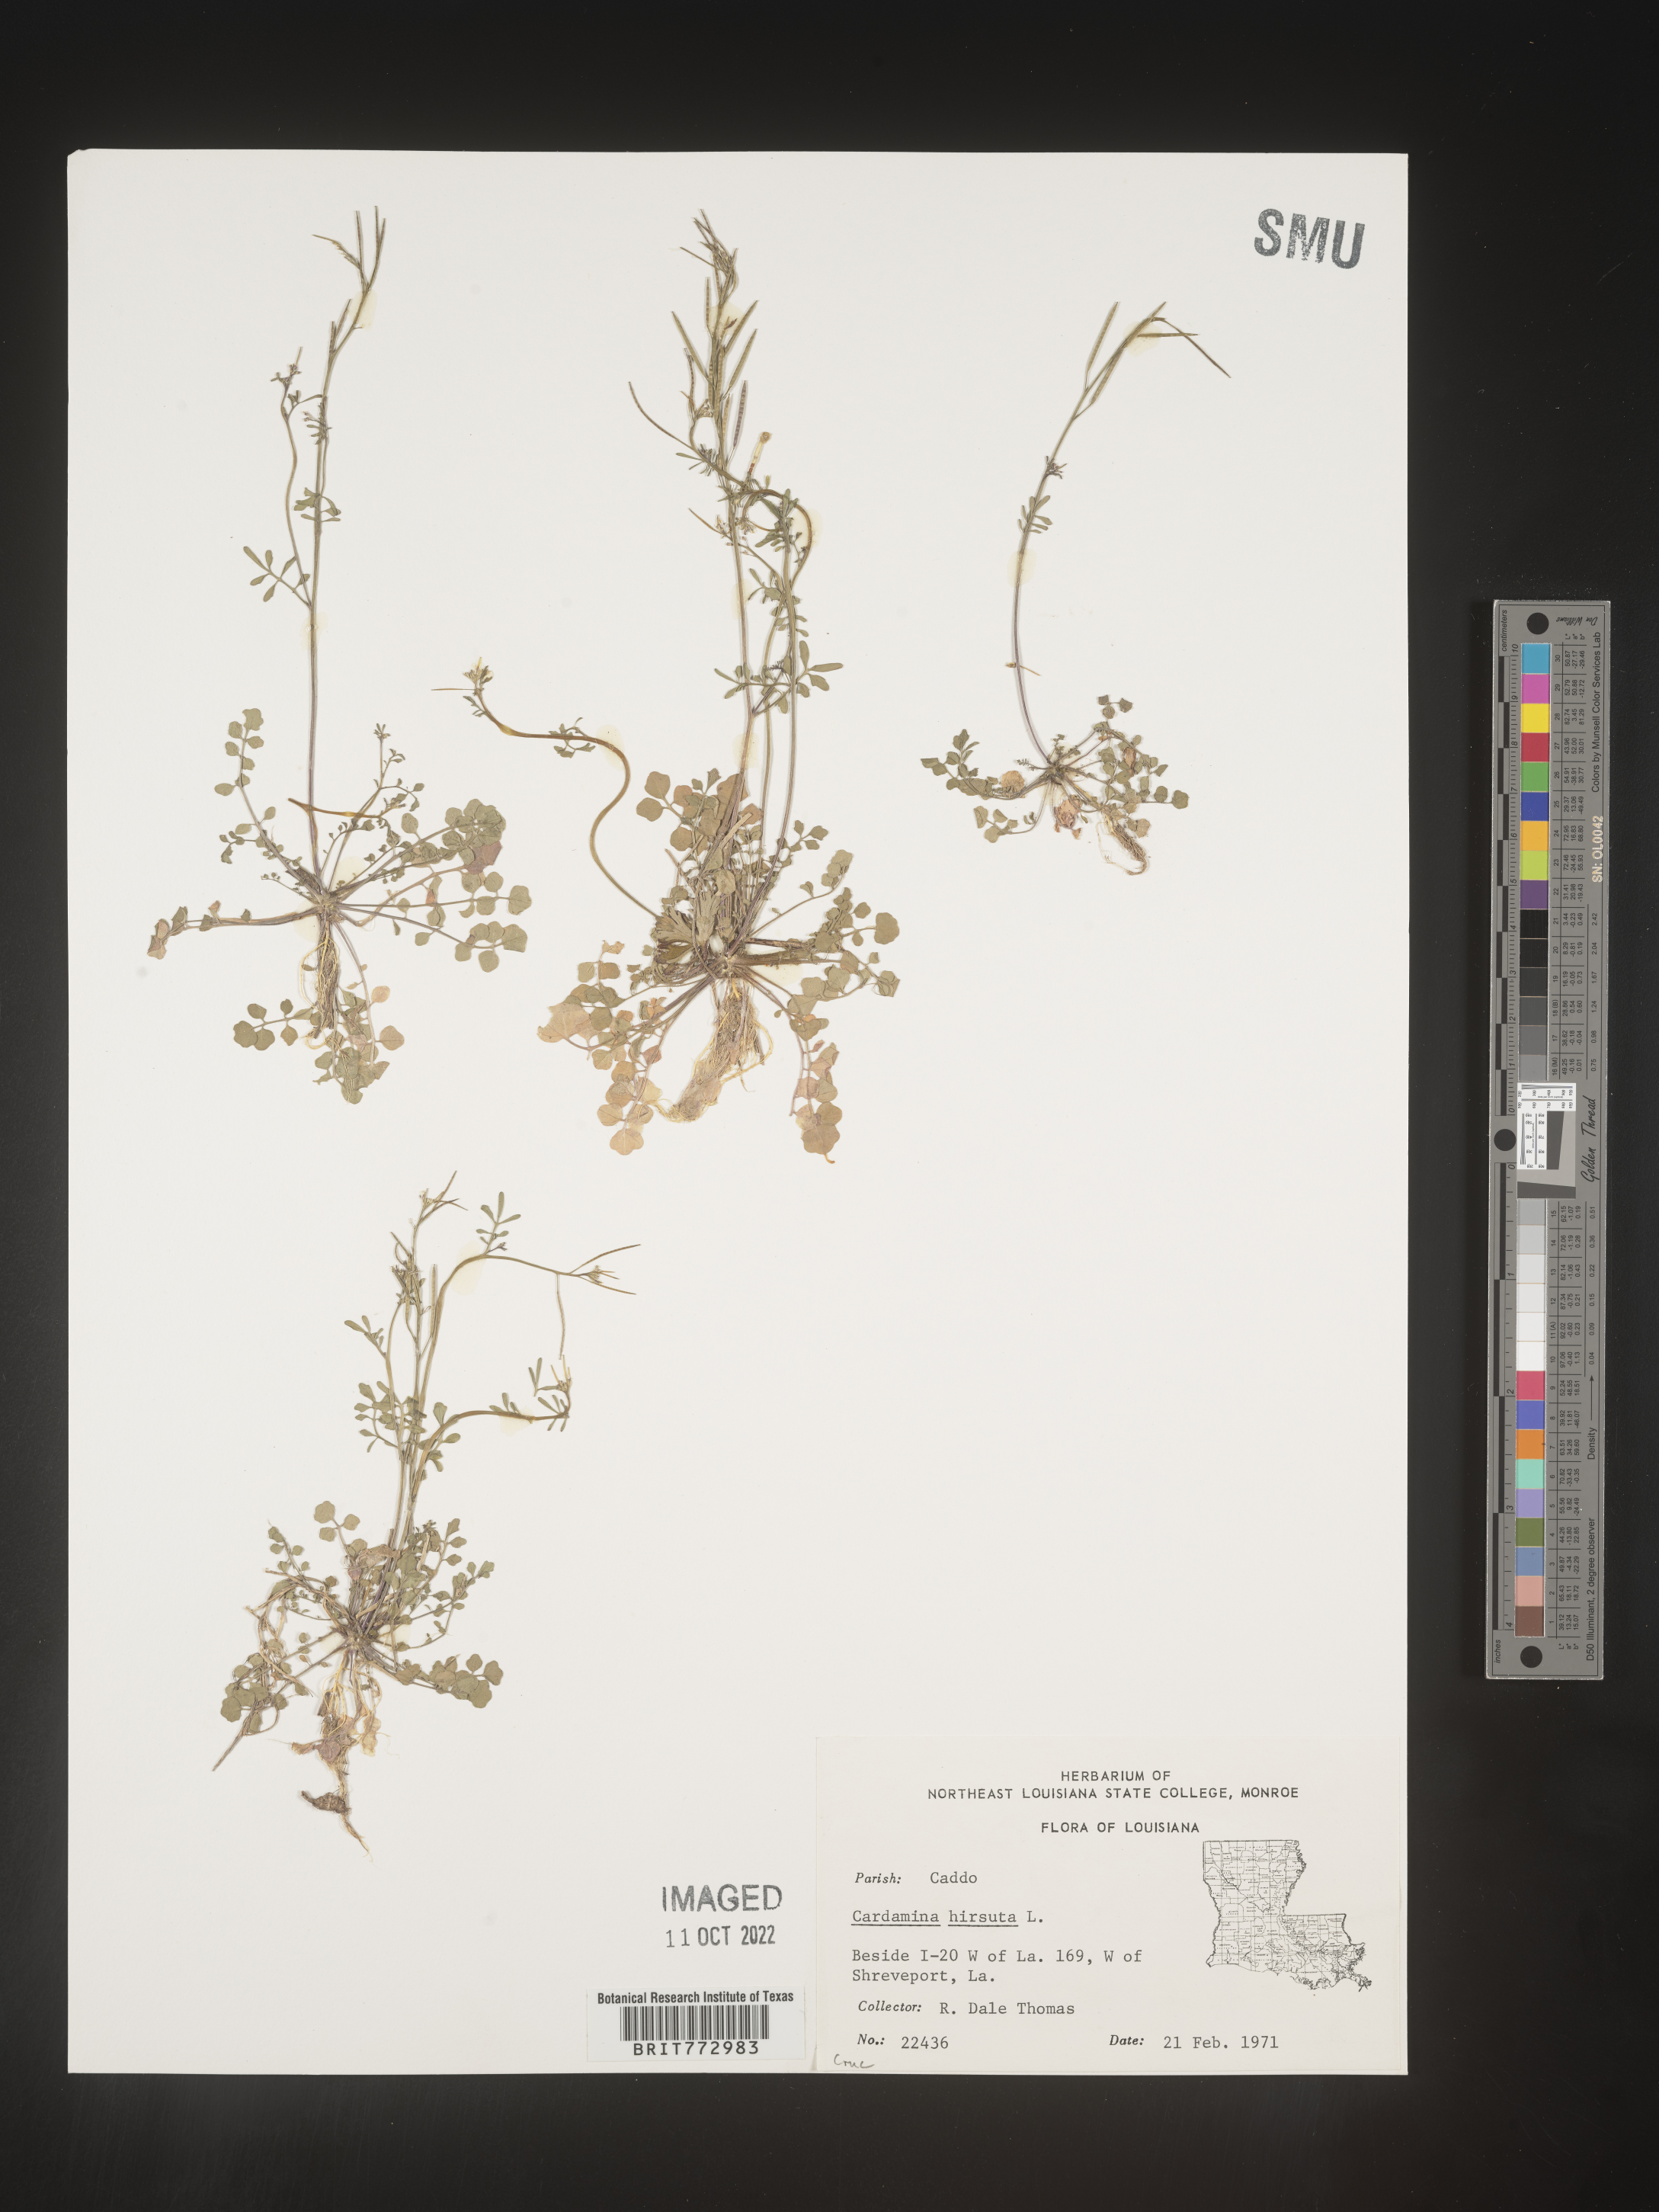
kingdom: Plantae
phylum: Tracheophyta
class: Magnoliopsida
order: Brassicales
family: Brassicaceae
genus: Cardamine
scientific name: Cardamine hirsuta
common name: Hairy bittercress
